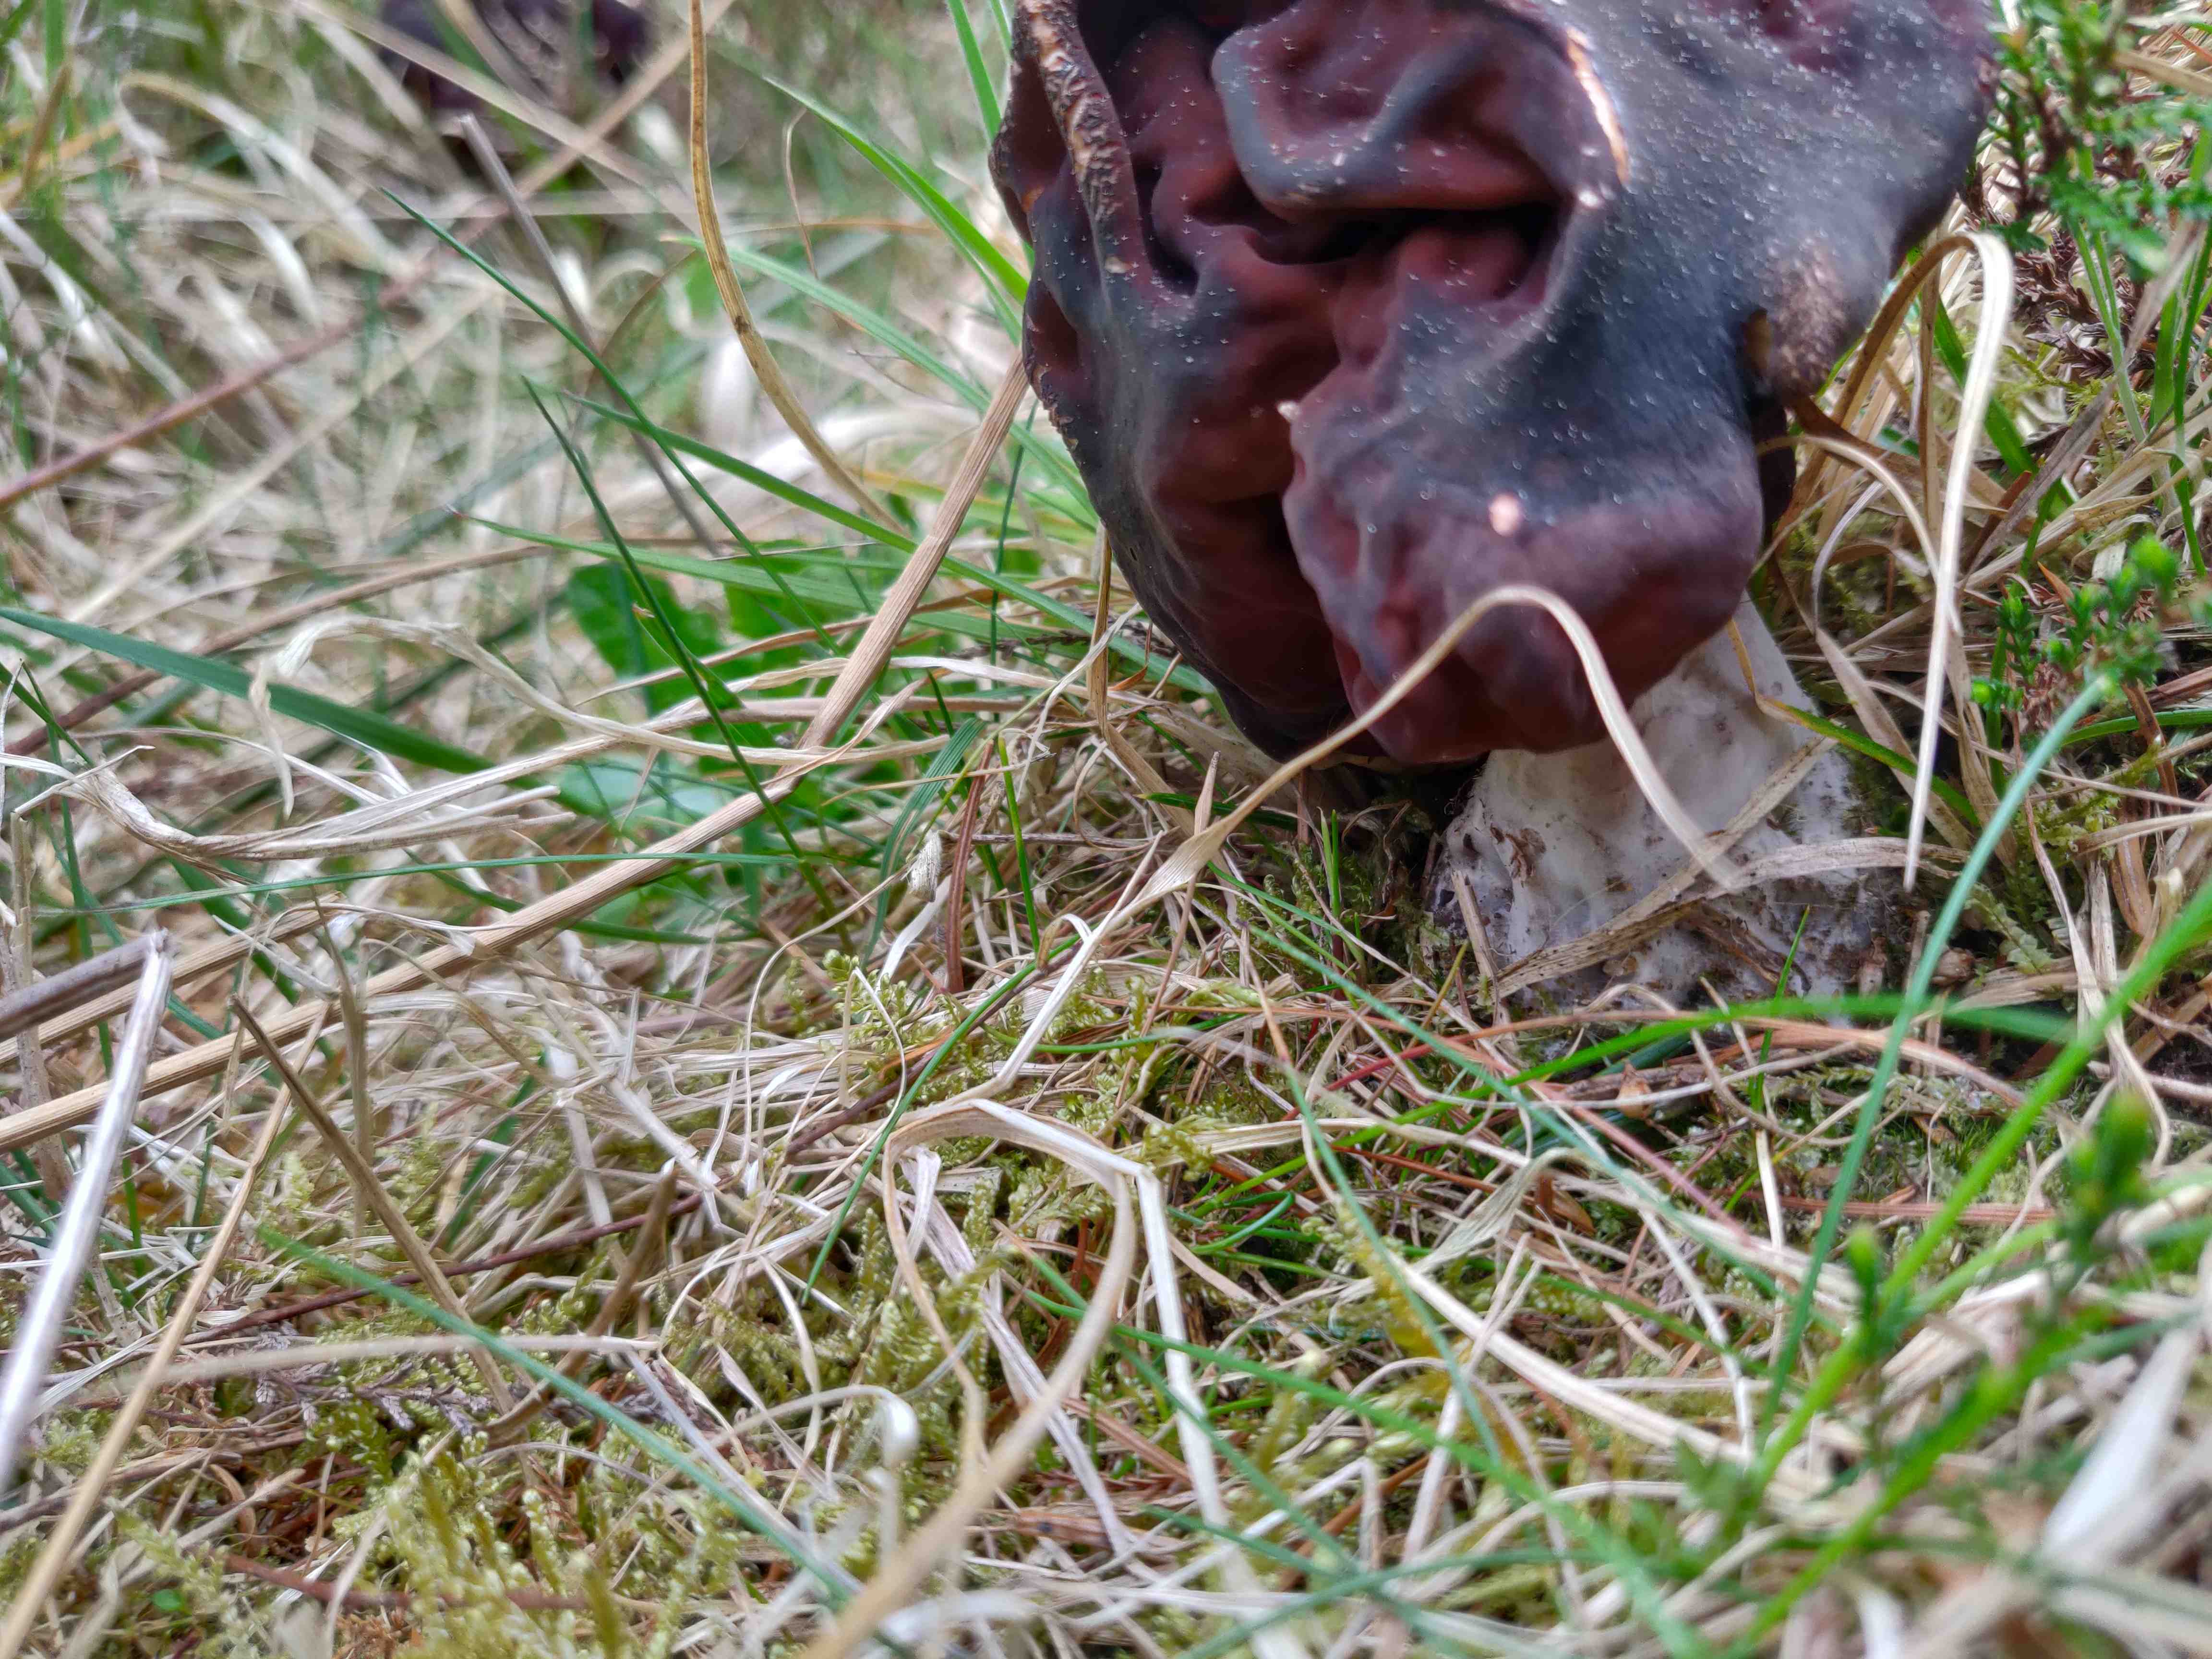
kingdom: Fungi
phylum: Ascomycota
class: Pezizomycetes
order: Pezizales
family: Discinaceae
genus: Gyromitra
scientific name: Gyromitra esculenta
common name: ægte stenmorkel
